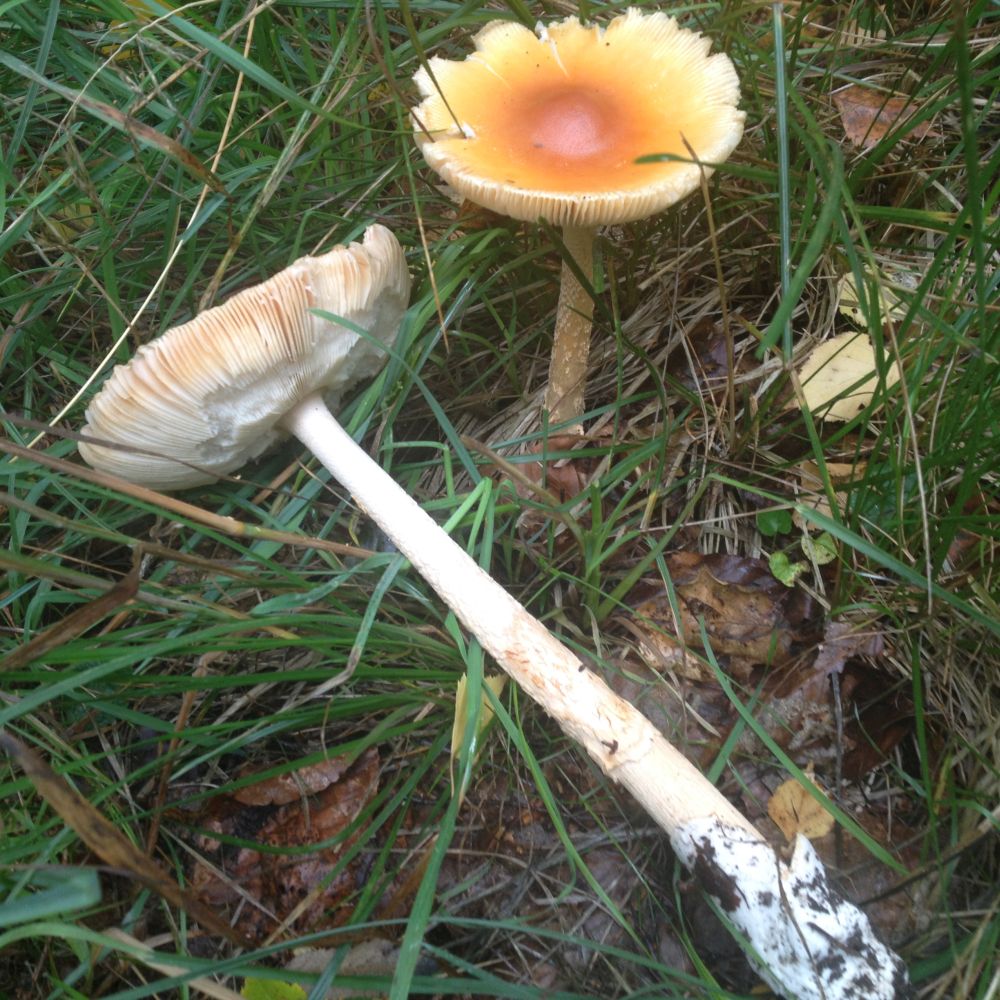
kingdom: Fungi
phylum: Basidiomycota
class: Agaricomycetes
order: Agaricales
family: Amanitaceae
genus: Amanita
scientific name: Amanita crocea
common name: gylden kam-fluesvamp
